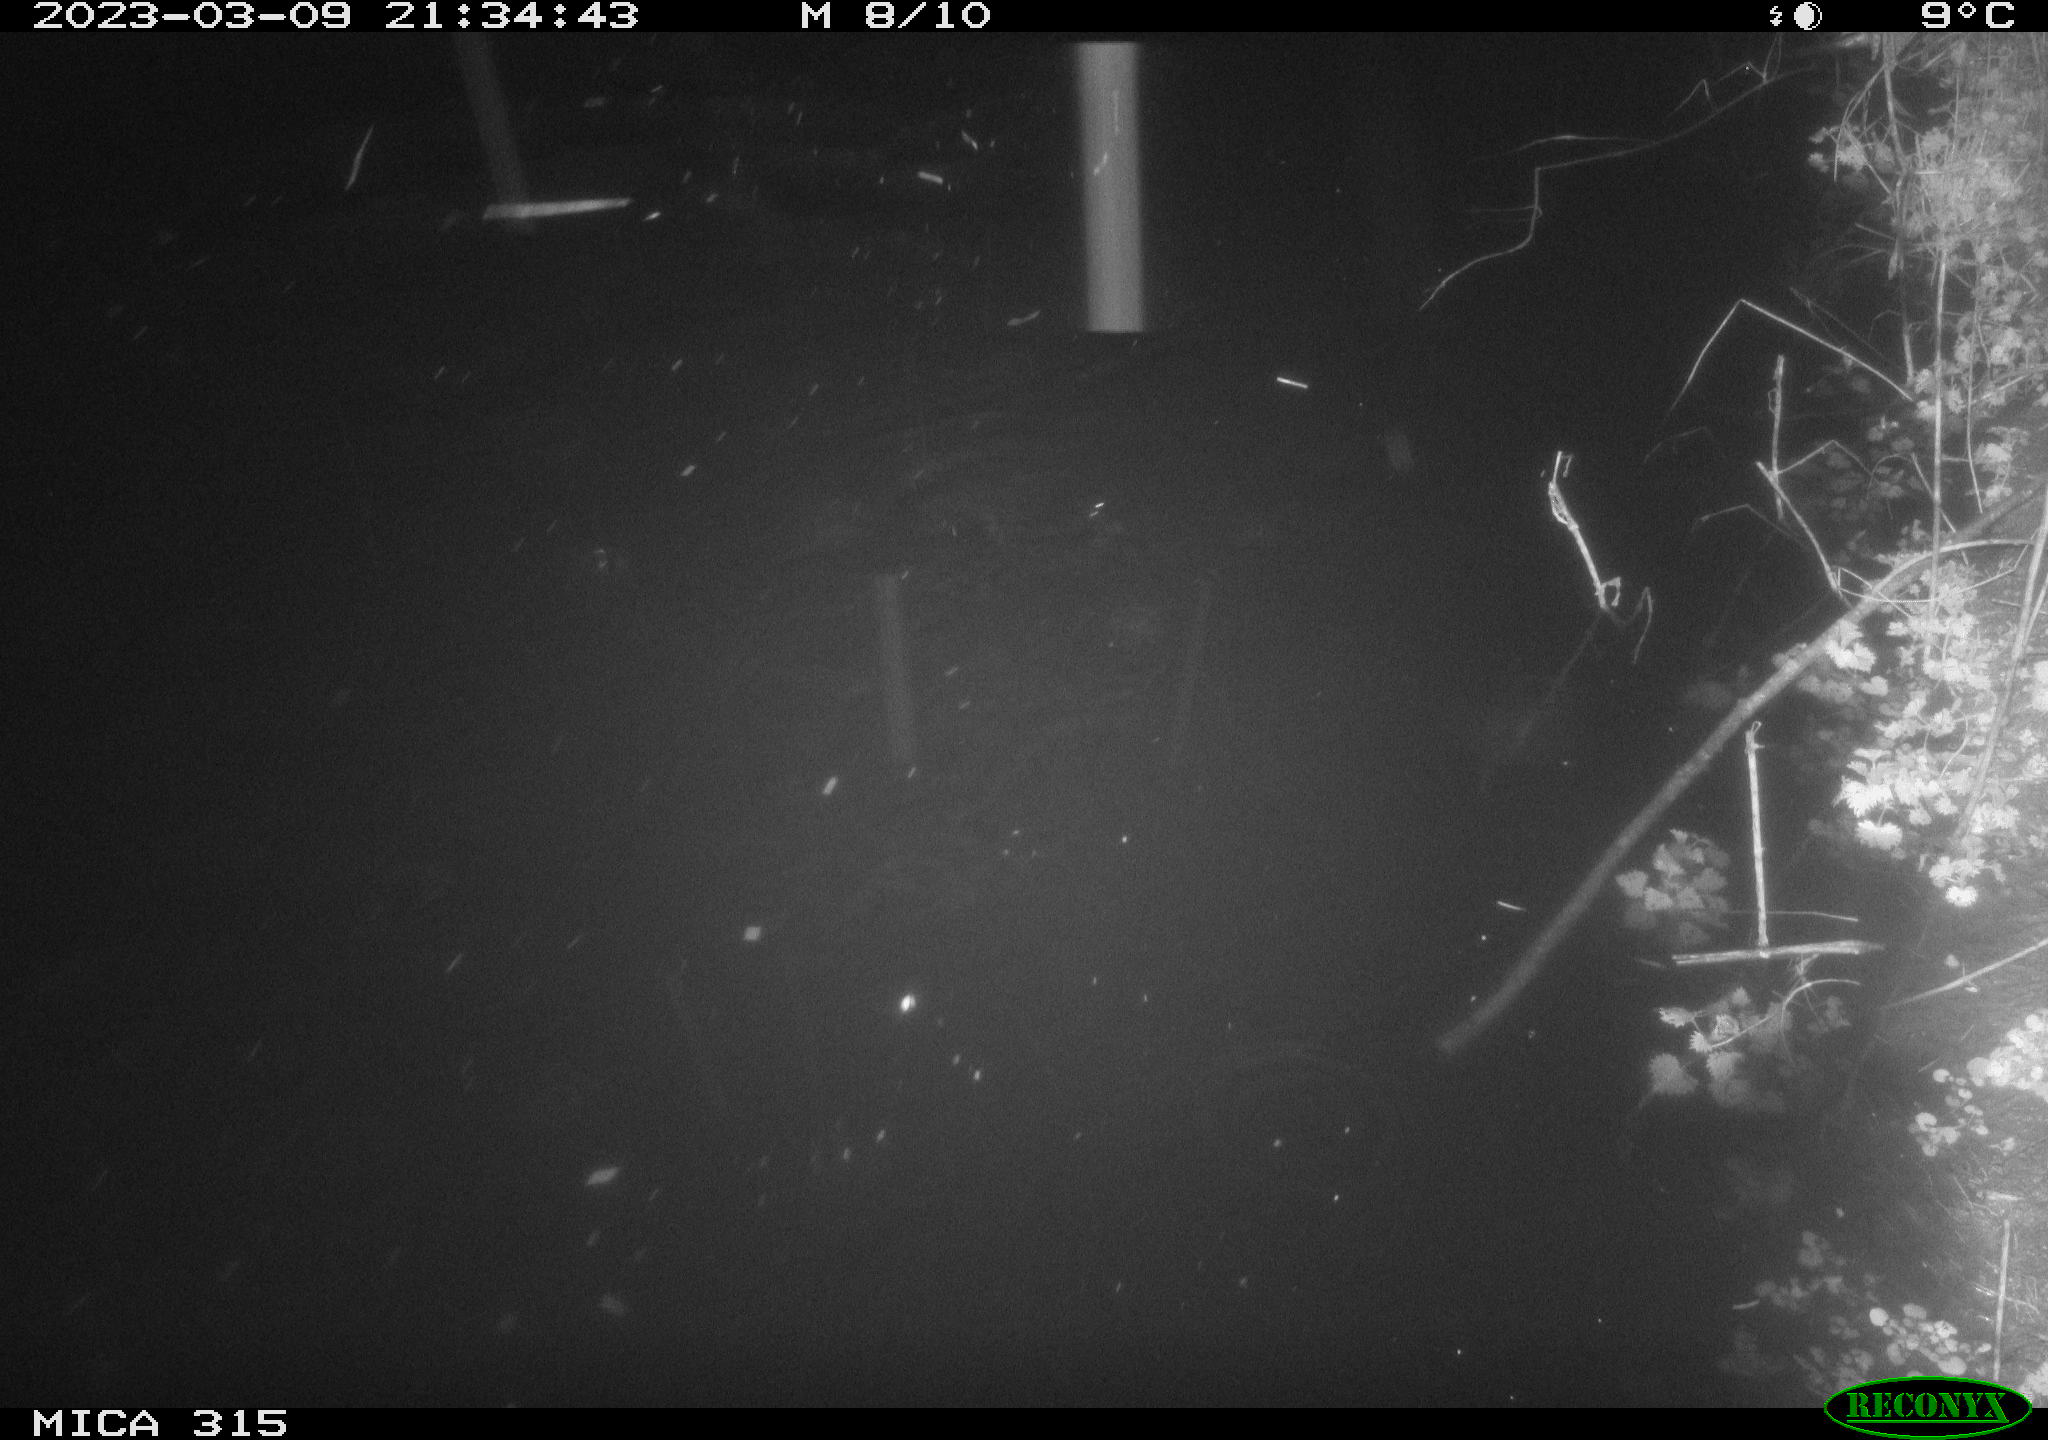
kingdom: Animalia
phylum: Chordata
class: Aves
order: Anseriformes
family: Anatidae
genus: Anas
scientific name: Anas
